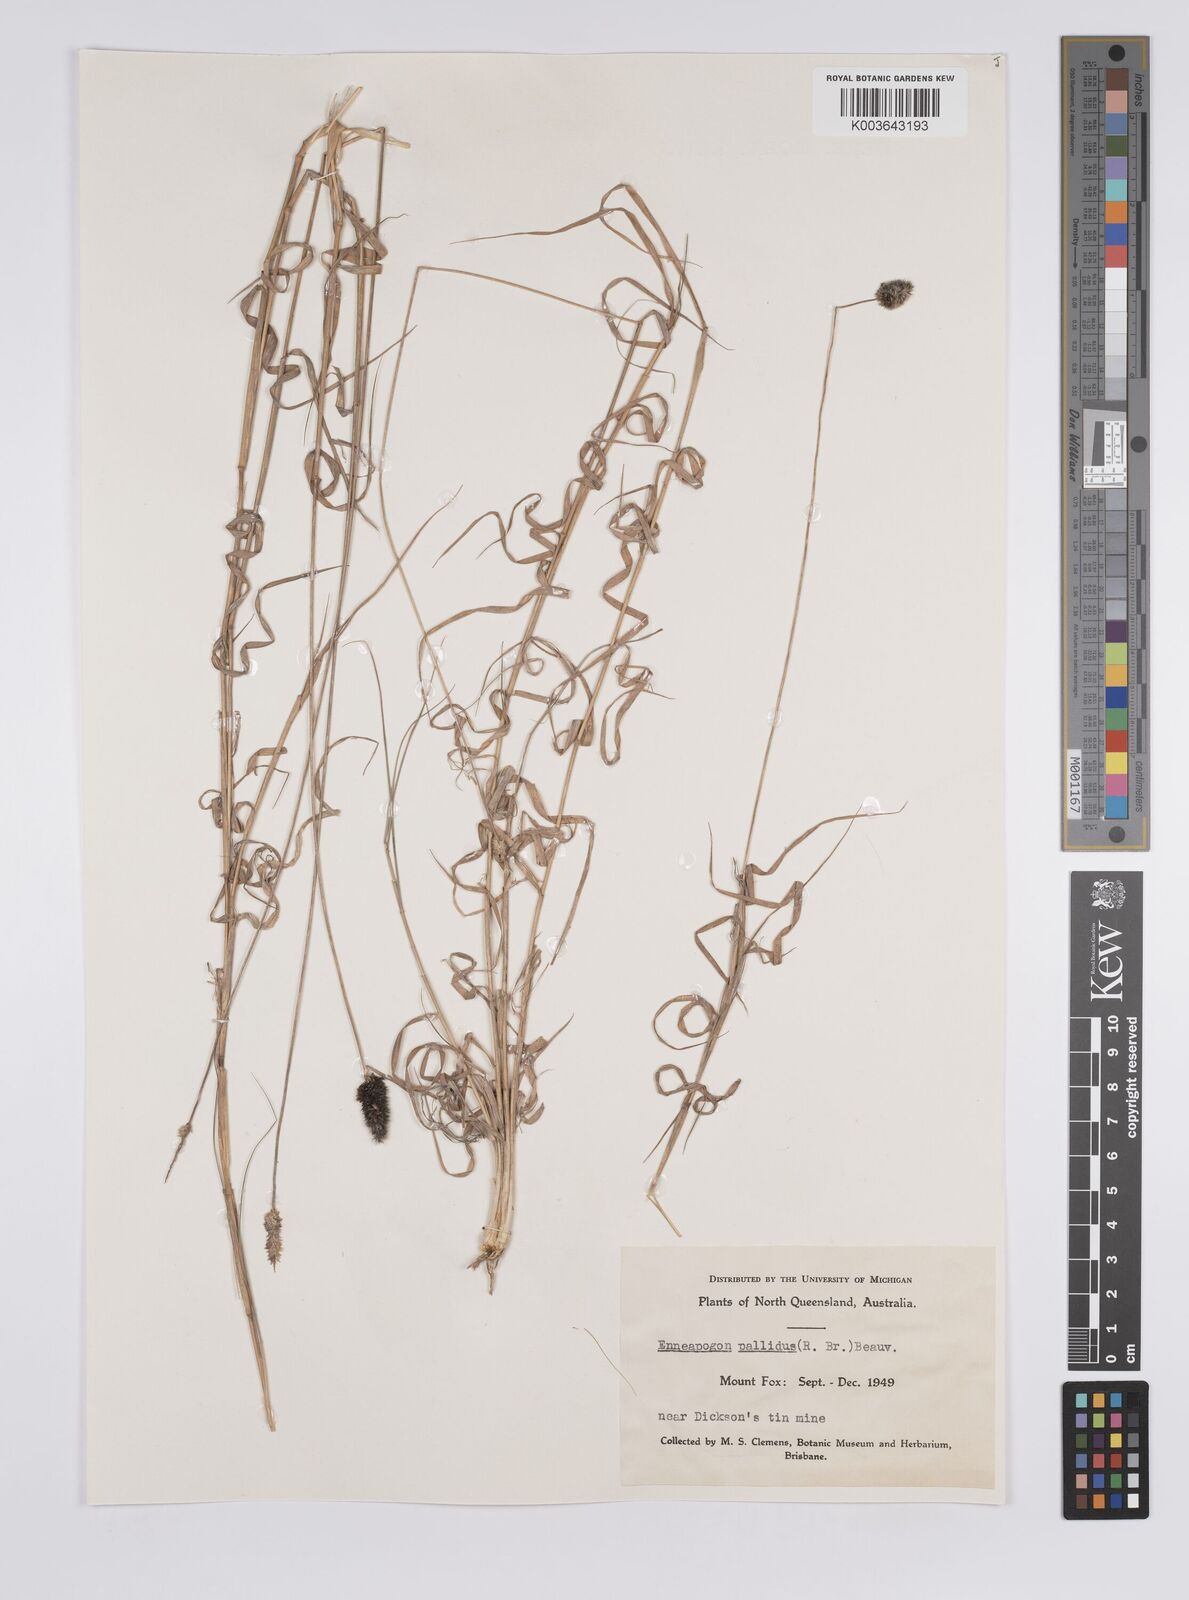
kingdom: Plantae
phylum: Tracheophyta
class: Liliopsida
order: Poales
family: Poaceae
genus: Enneapogon
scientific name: Enneapogon
